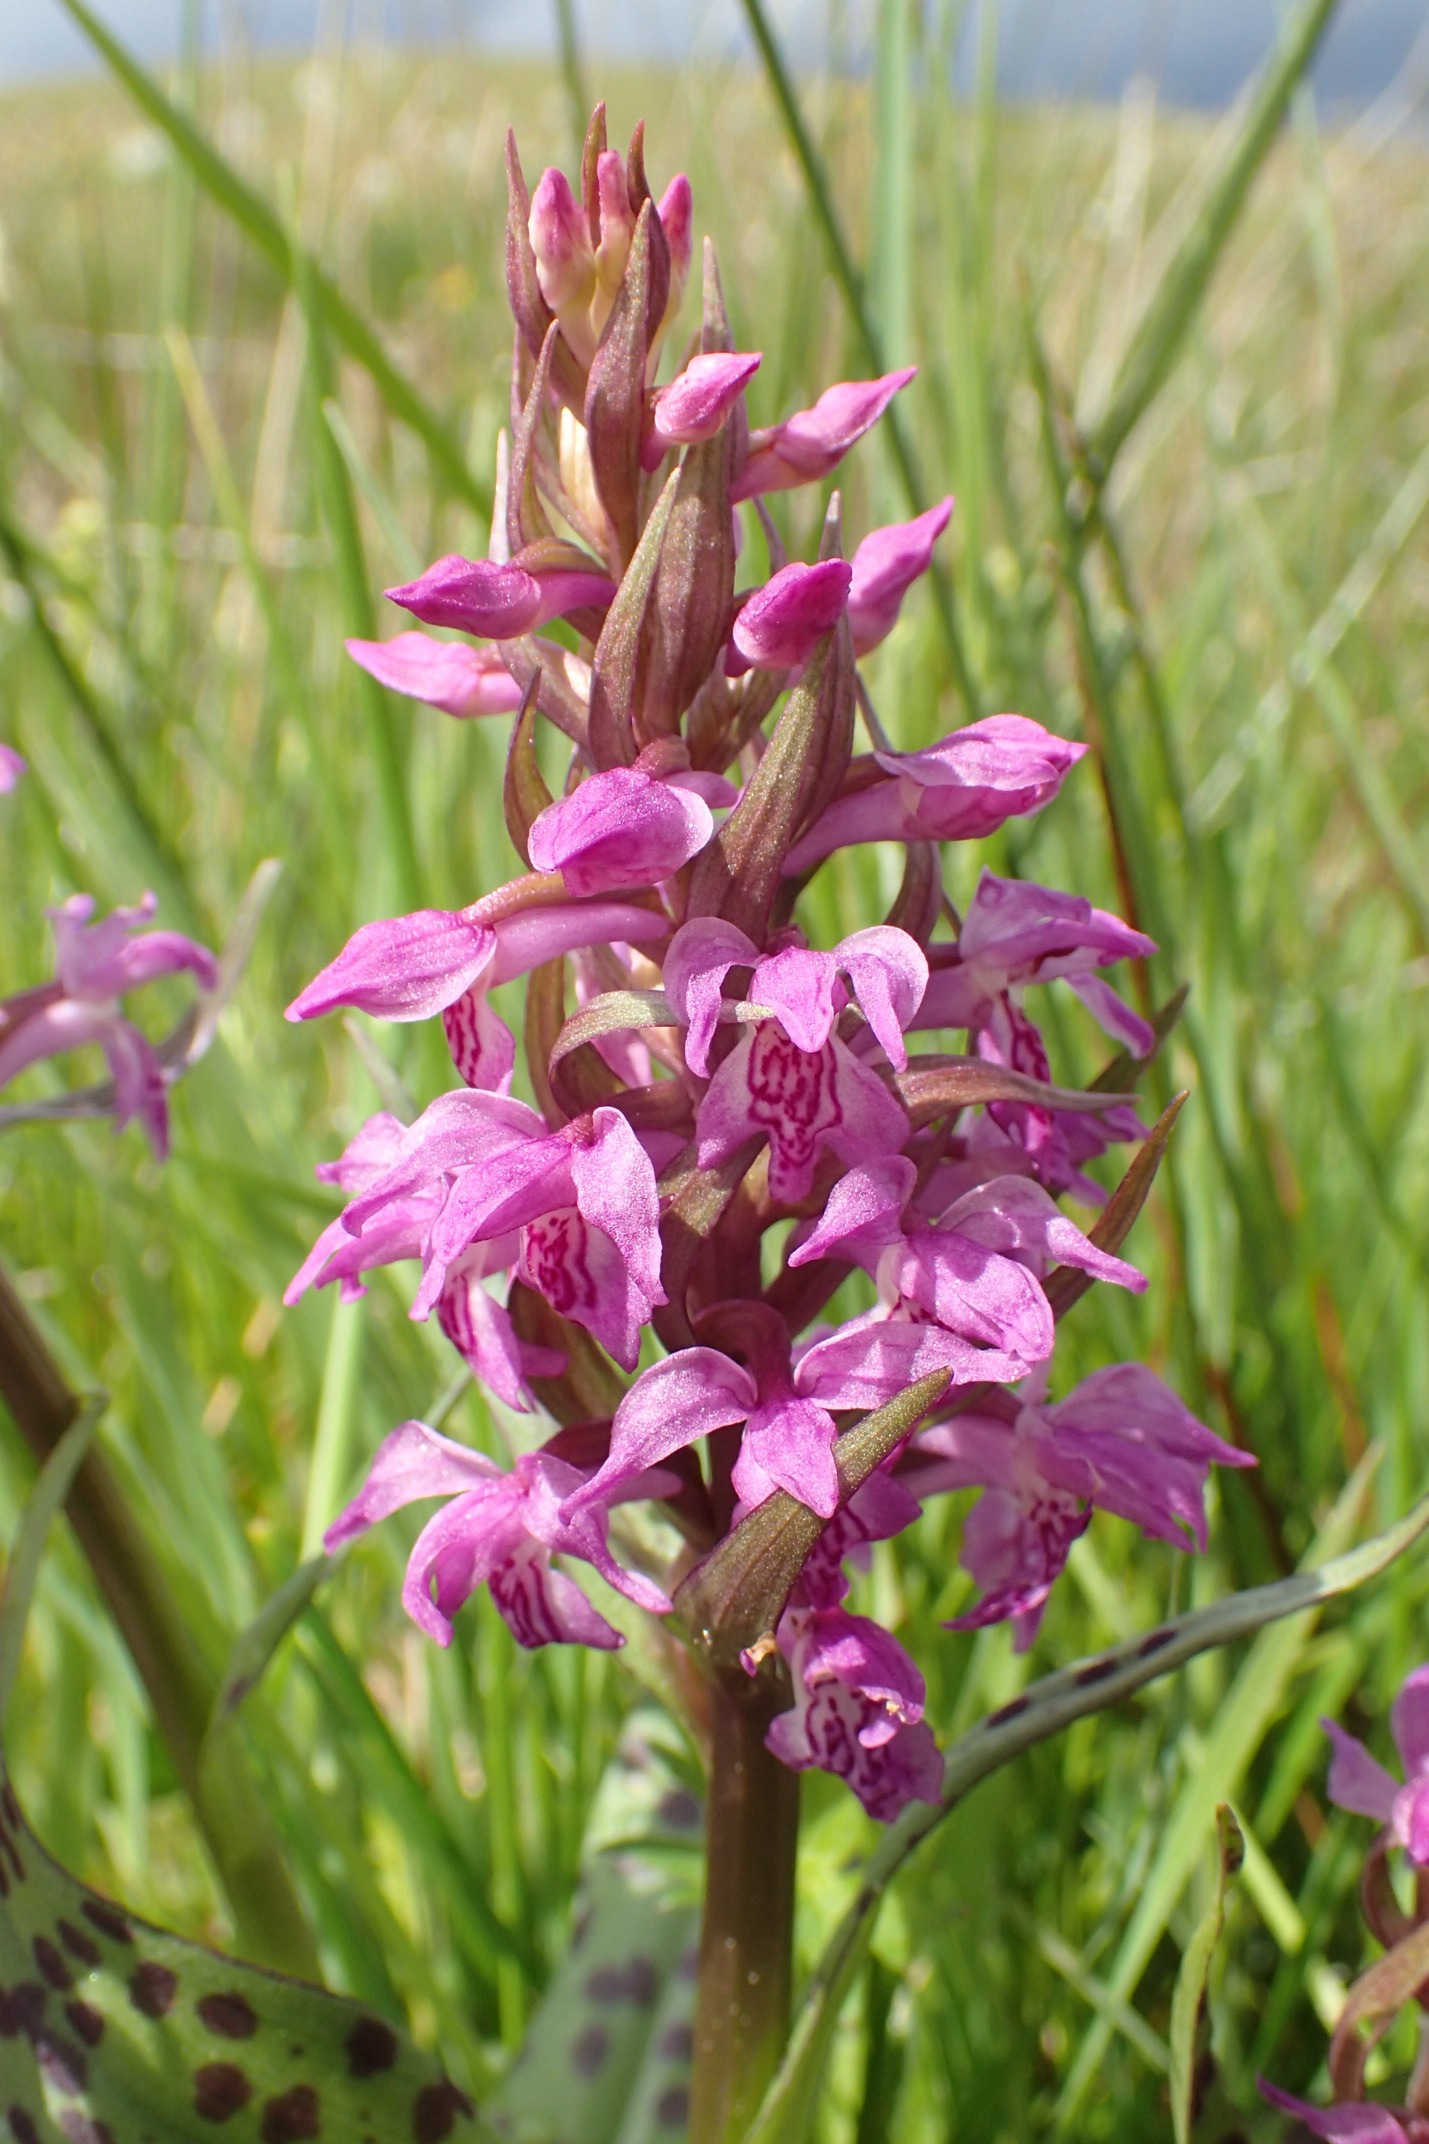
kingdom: Plantae
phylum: Tracheophyta
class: Liliopsida
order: Asparagales
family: Orchidaceae
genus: Dactylorhiza
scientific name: Dactylorhiza majalis
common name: Maj-gøgeurt
